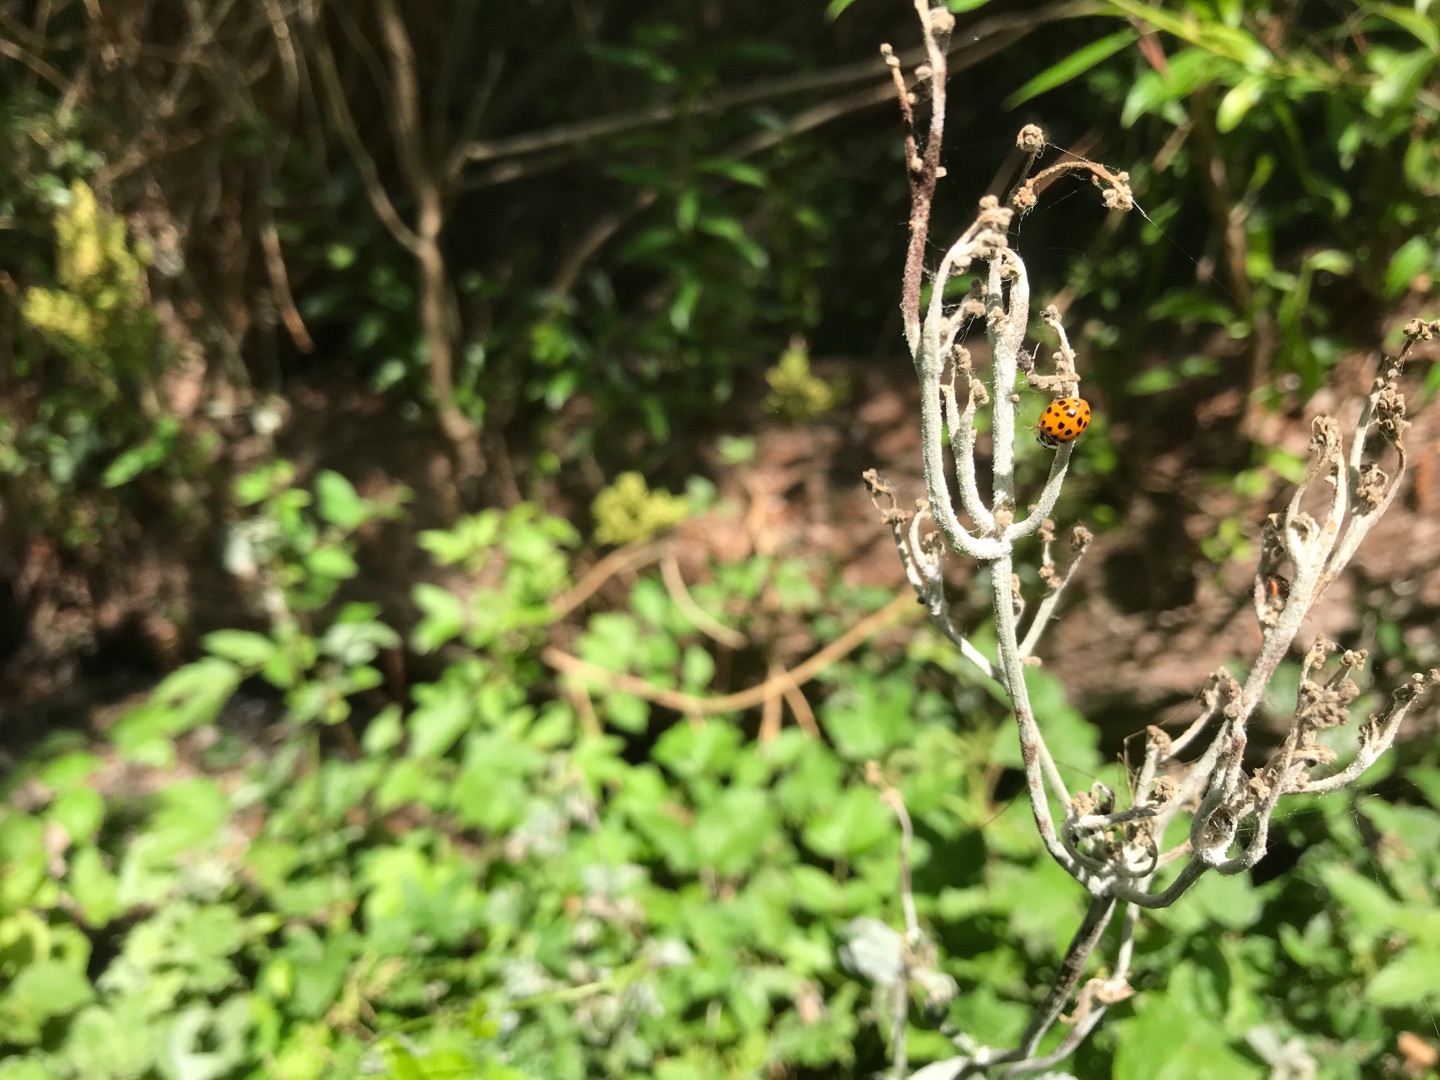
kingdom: Animalia
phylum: Arthropoda
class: Insecta
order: Coleoptera
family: Coccinellidae
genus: Harmonia
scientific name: Harmonia axyridis
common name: Harlekinmariehøne
